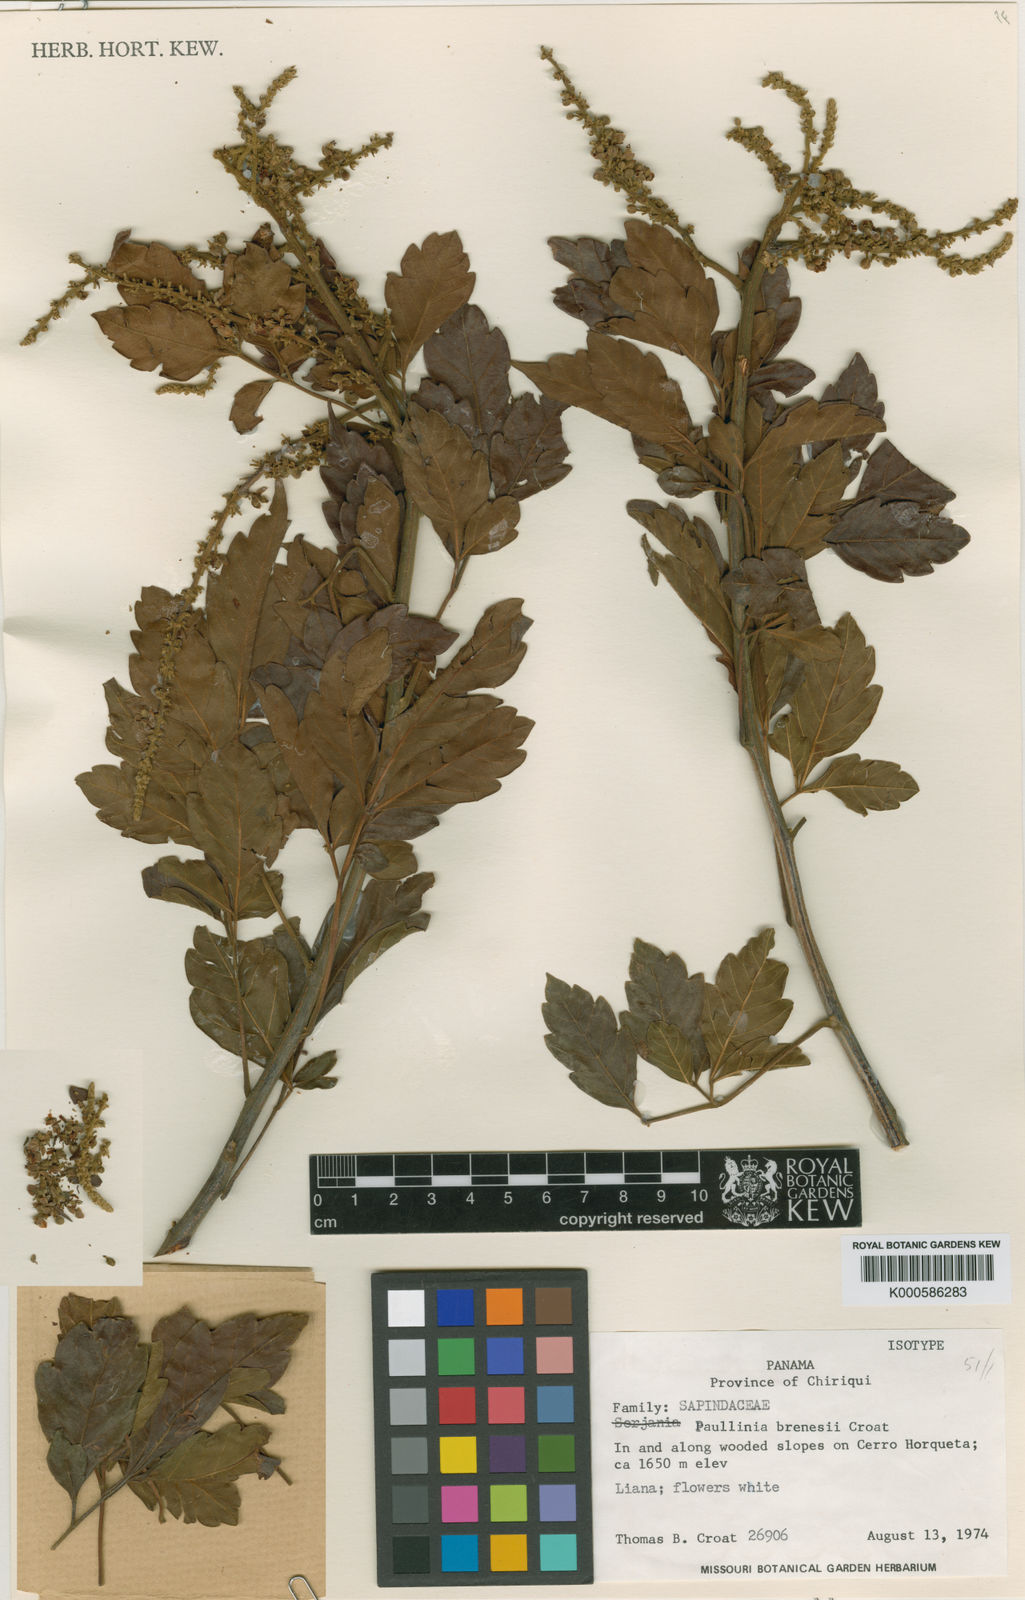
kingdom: Plantae
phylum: Tracheophyta
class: Magnoliopsida
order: Sapindales
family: Sapindaceae
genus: Paullinia
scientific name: Paullinia brenesii
